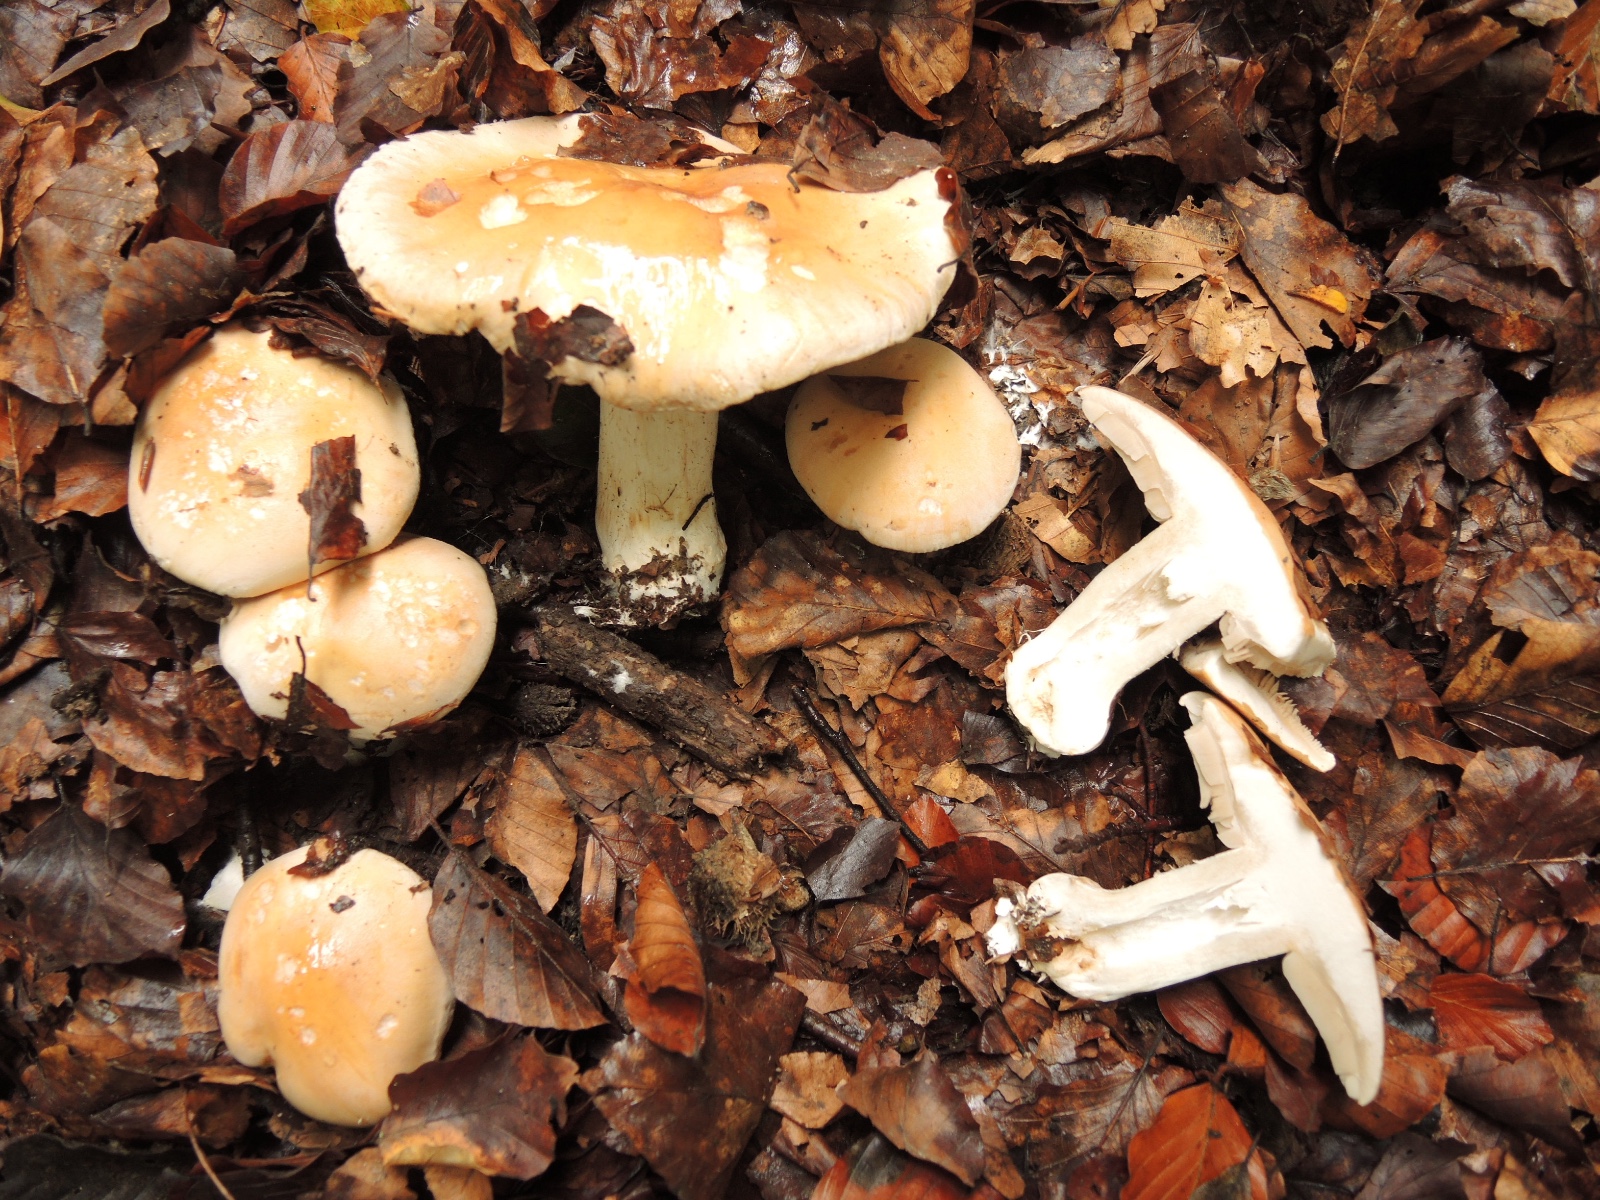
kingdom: Fungi
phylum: Basidiomycota
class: Agaricomycetes
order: Agaricales
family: Hymenogastraceae
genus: Hebeloma
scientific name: Hebeloma sinapizans
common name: ræddike-tåreblad
